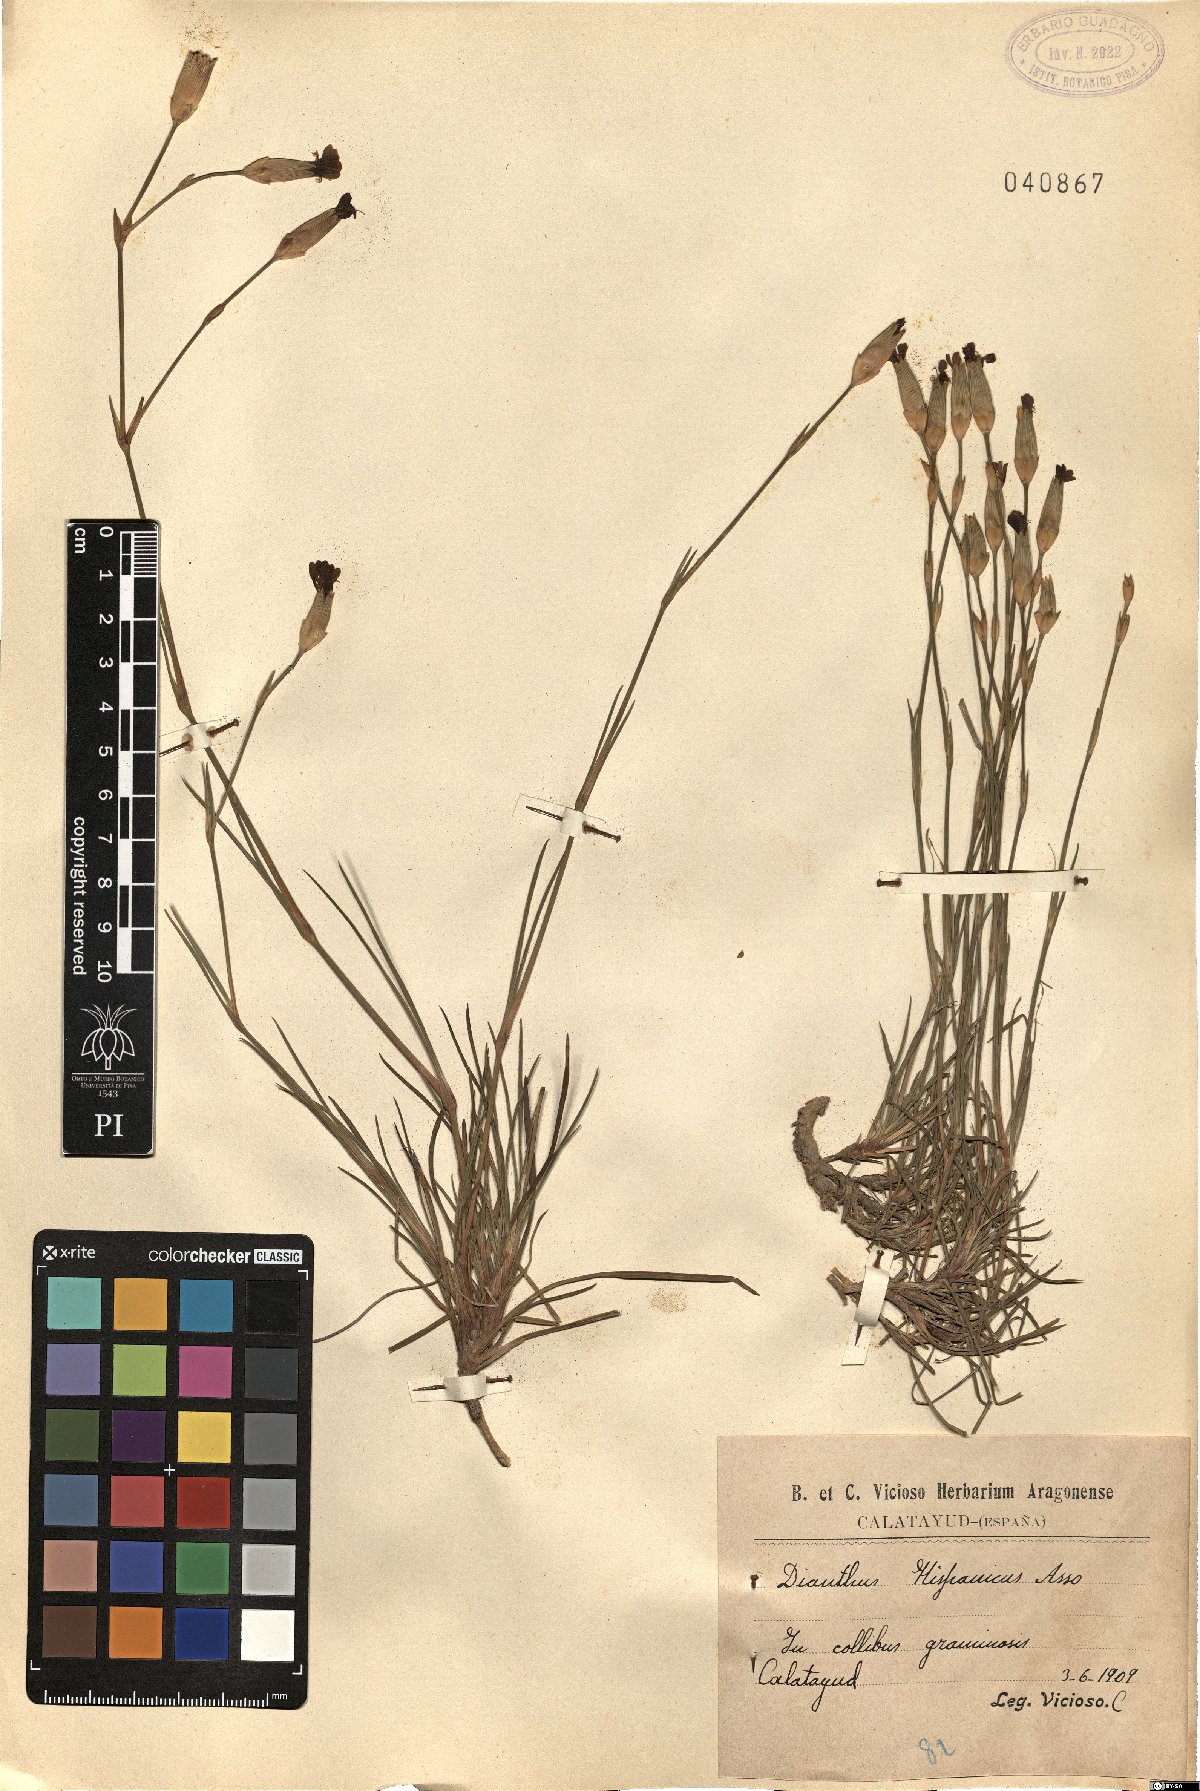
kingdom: Plantae
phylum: Tracheophyta
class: Magnoliopsida
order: Caryophyllales
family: Caryophyllaceae
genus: Dianthus
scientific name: Dianthus pungens
